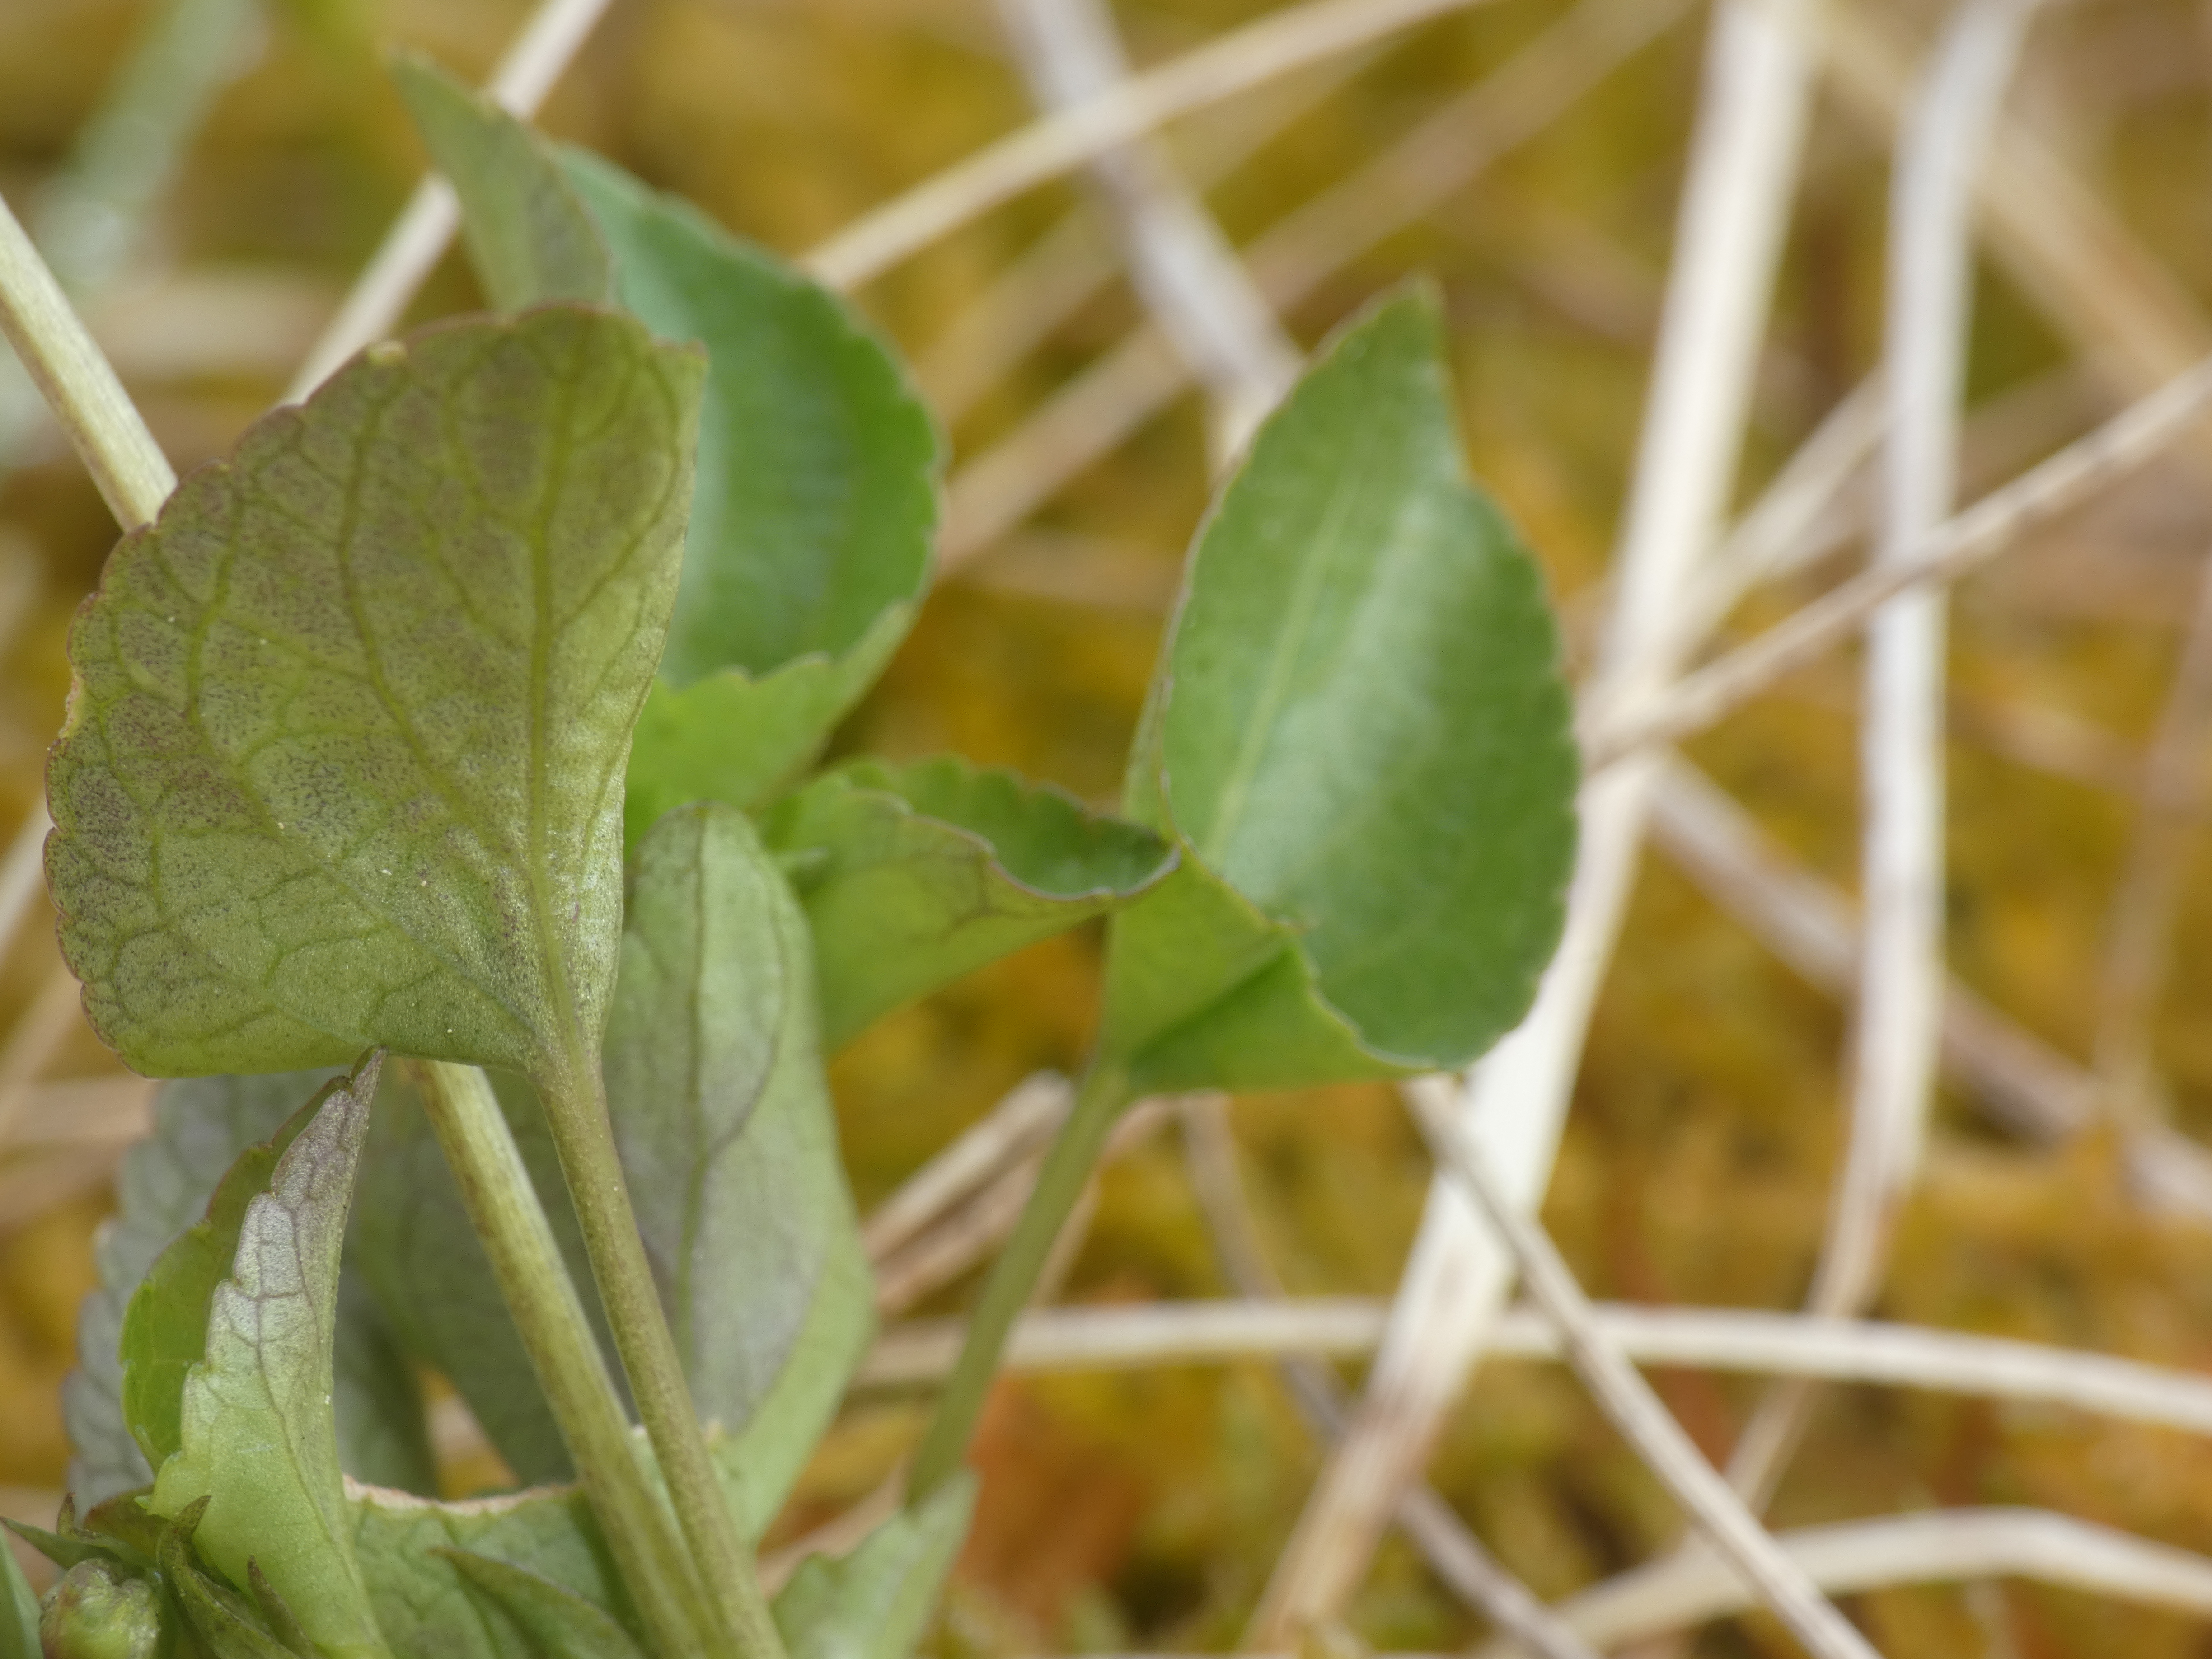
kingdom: Plantae
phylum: Tracheophyta
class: Magnoliopsida
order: Malpighiales
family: Violaceae
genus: Viola
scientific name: Viola riviniana
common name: Krat-viol
